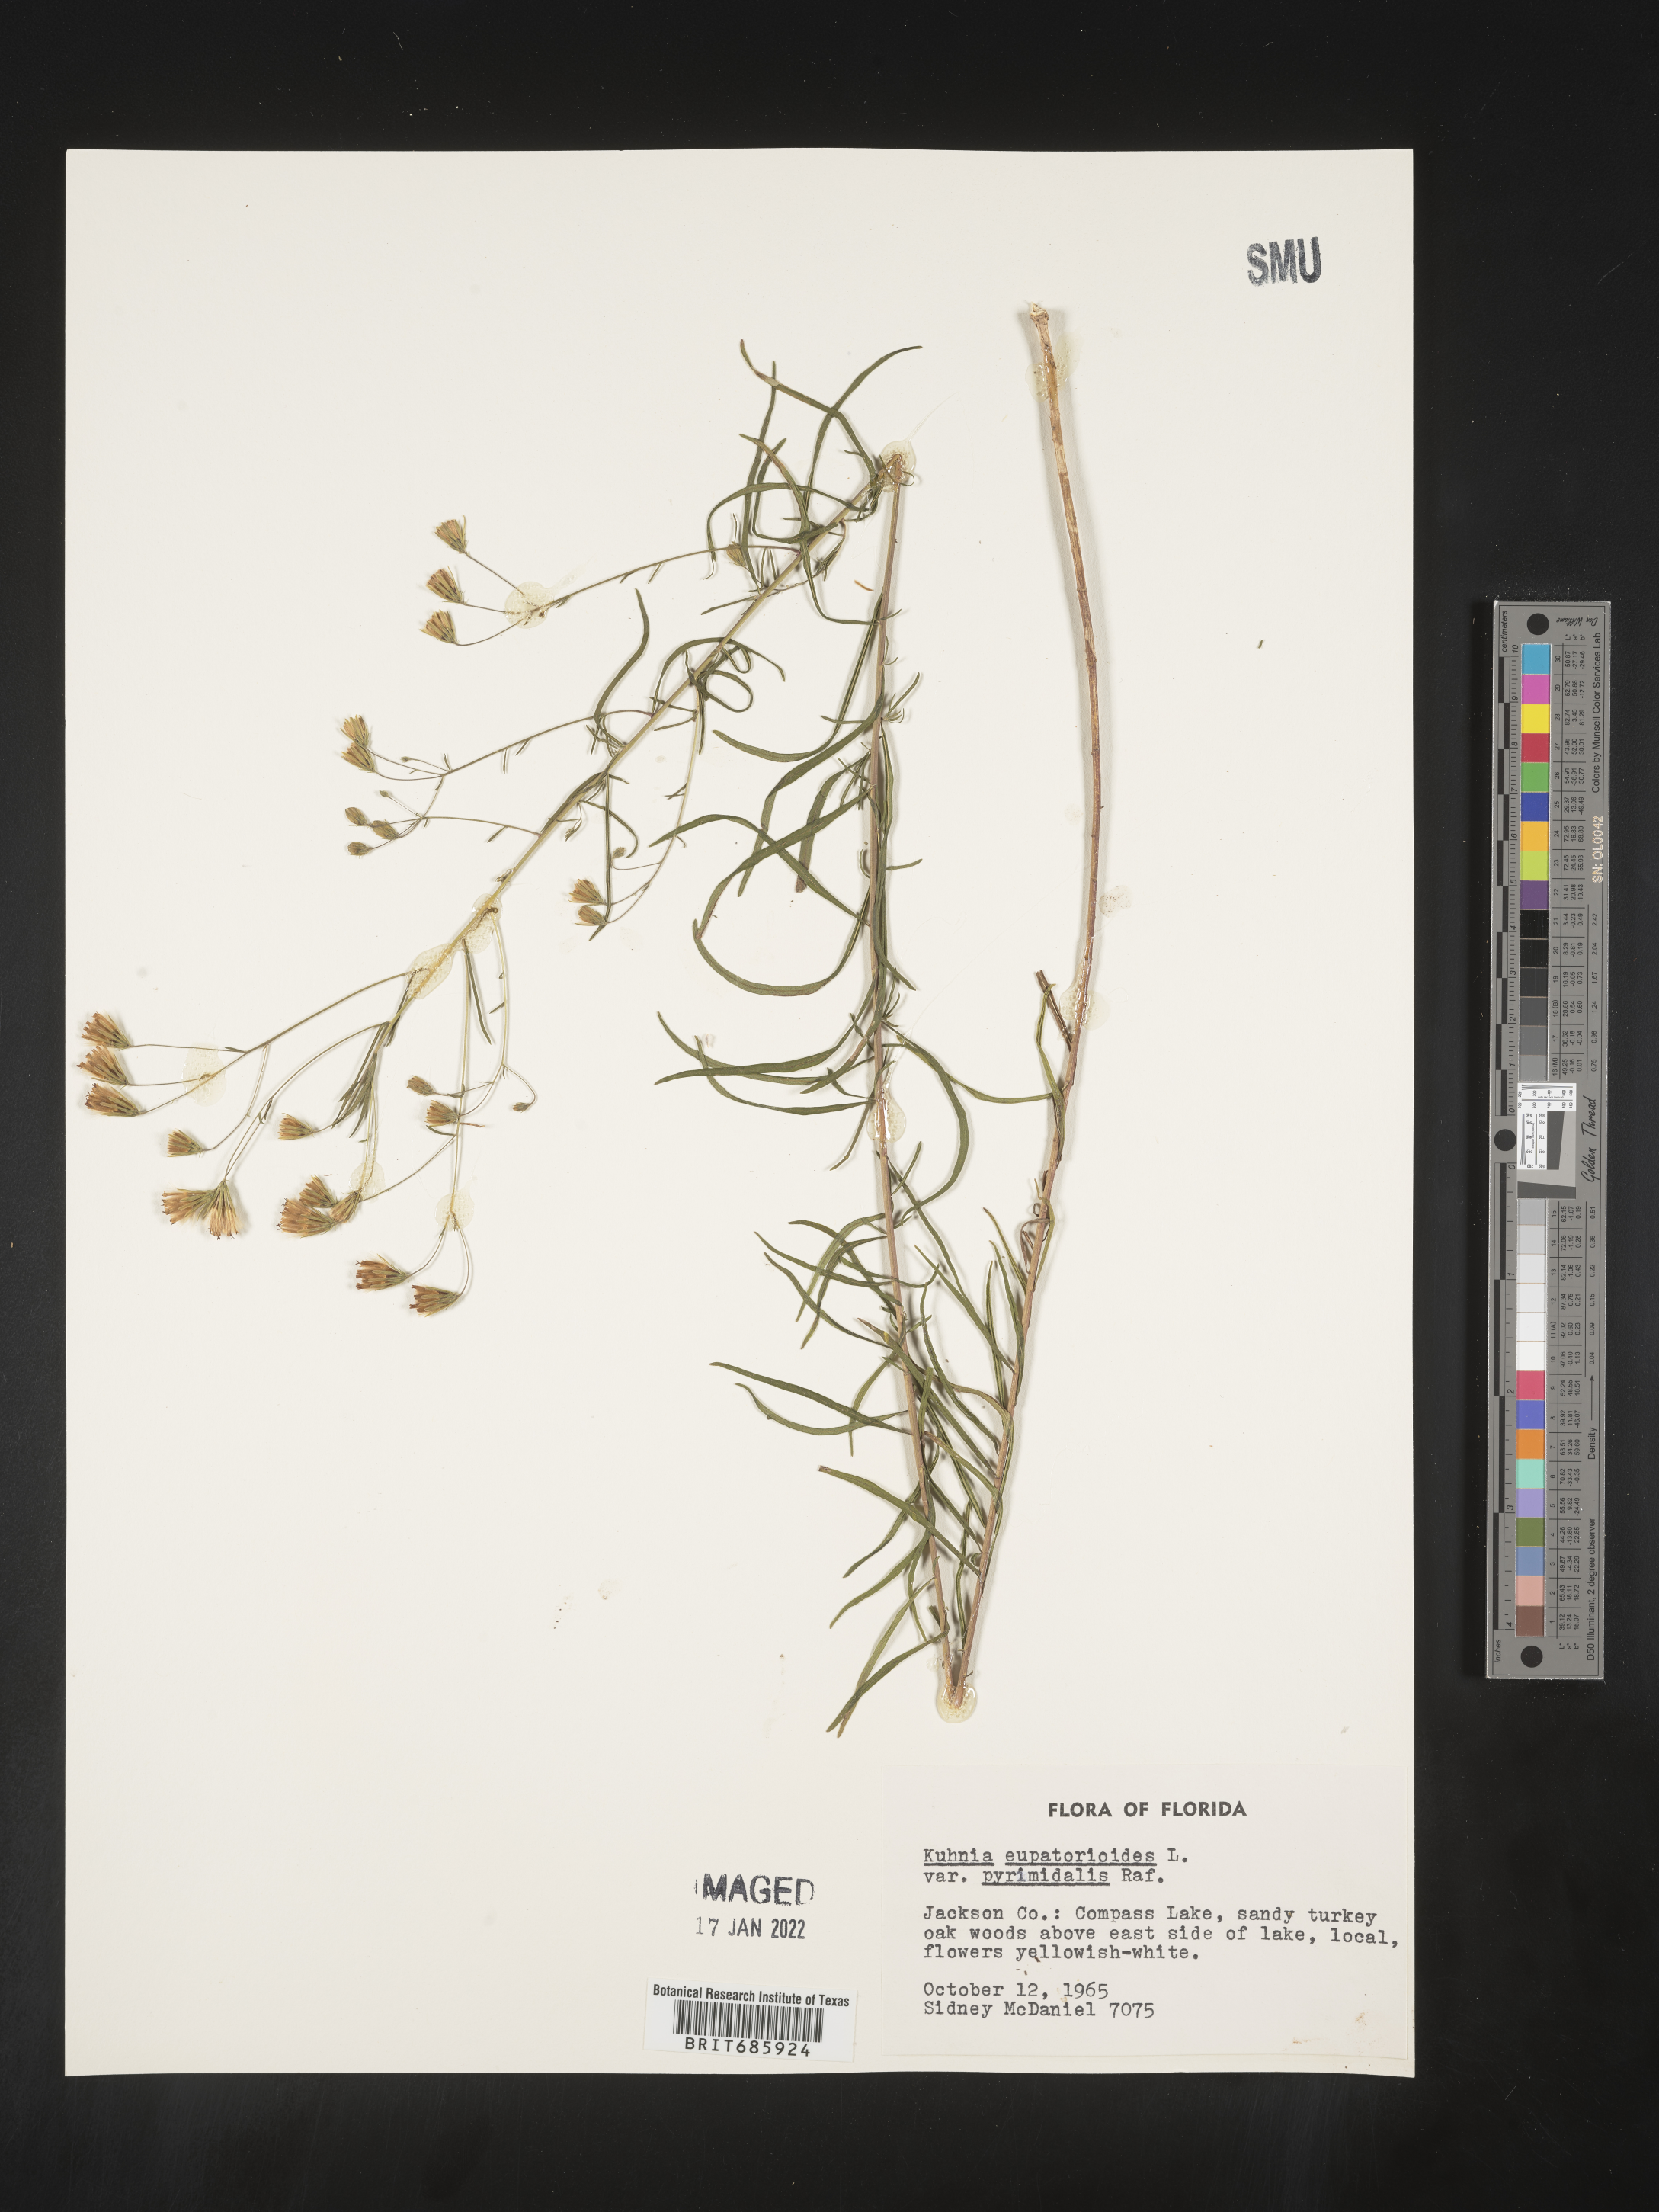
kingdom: Plantae
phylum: Tracheophyta
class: Magnoliopsida
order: Asterales
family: Asteraceae
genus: Brickellia
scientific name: Brickellia ozarkana
